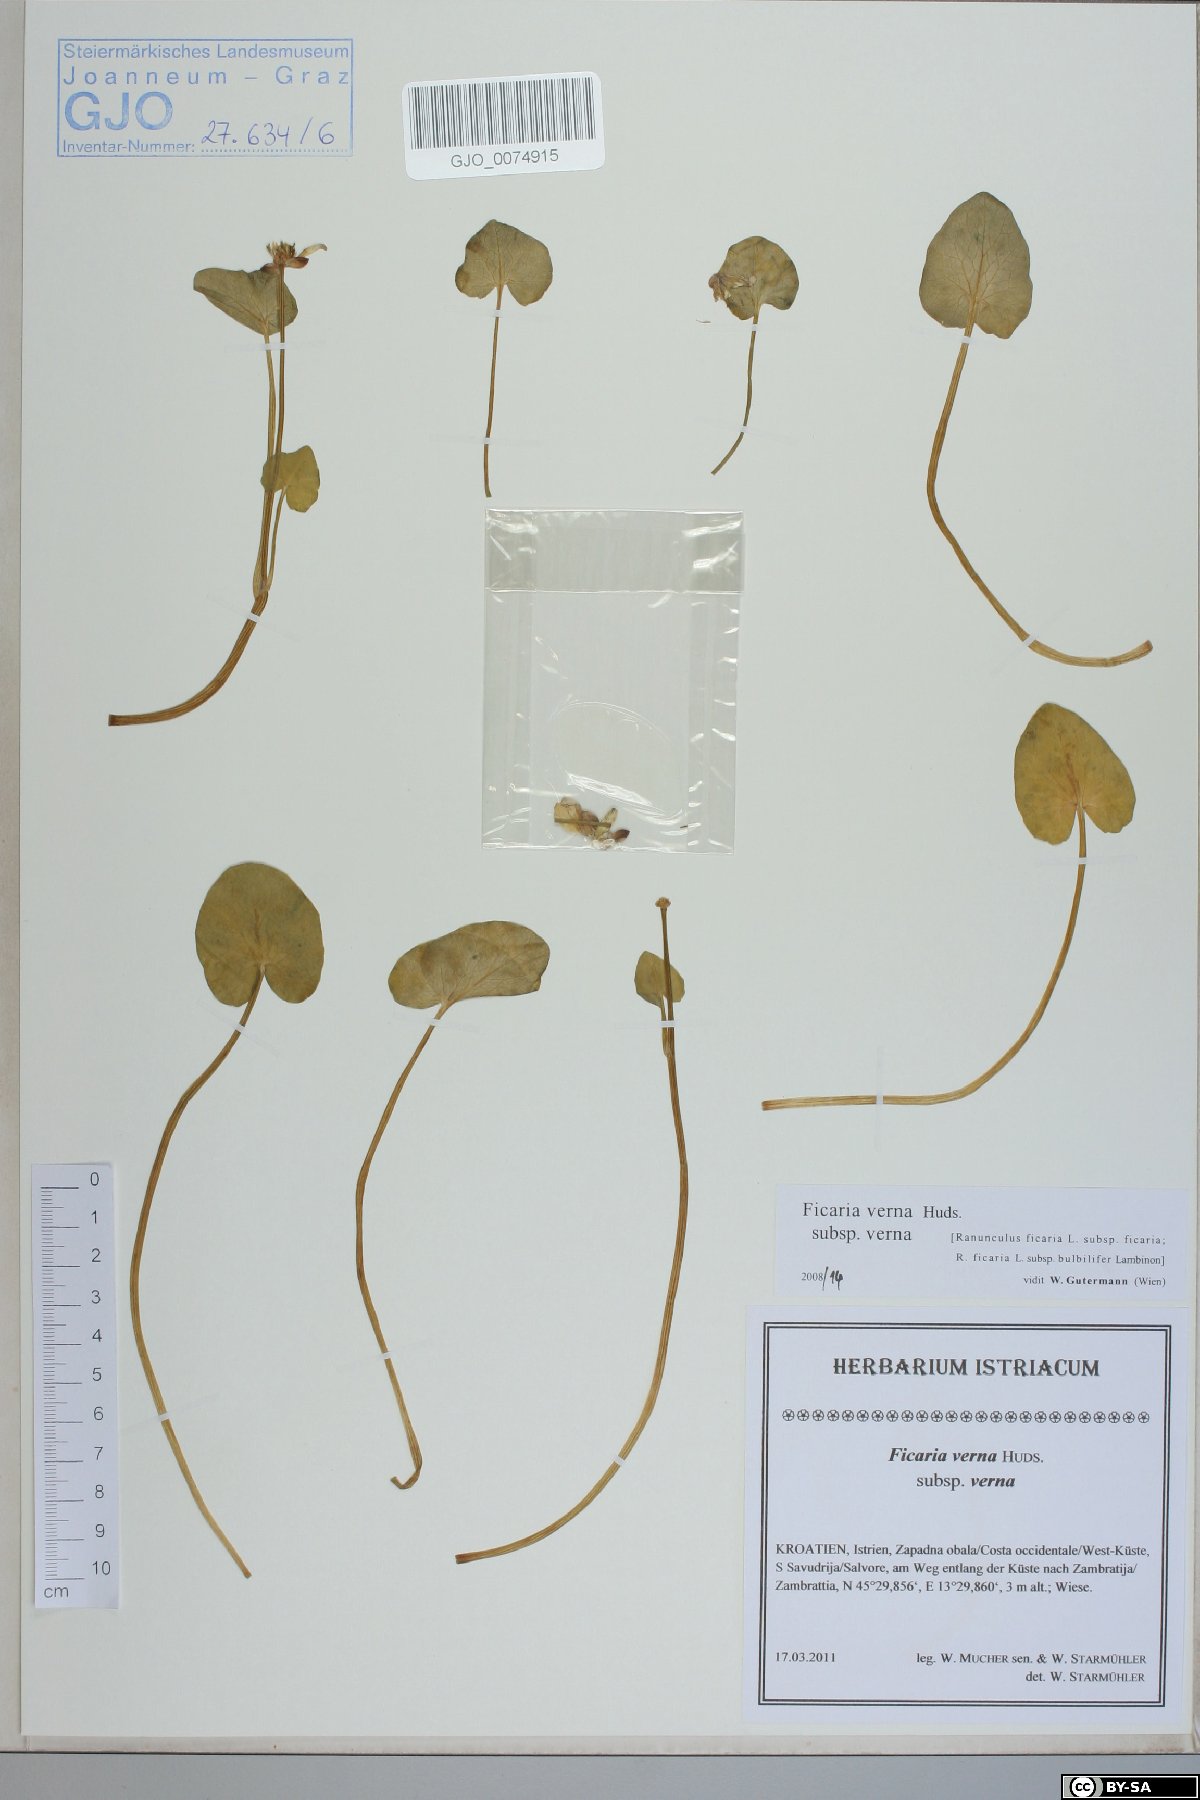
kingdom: Plantae
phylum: Tracheophyta
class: Magnoliopsida
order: Ranunculales
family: Ranunculaceae
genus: Ficaria
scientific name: Ficaria verna
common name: Lesser celandine
